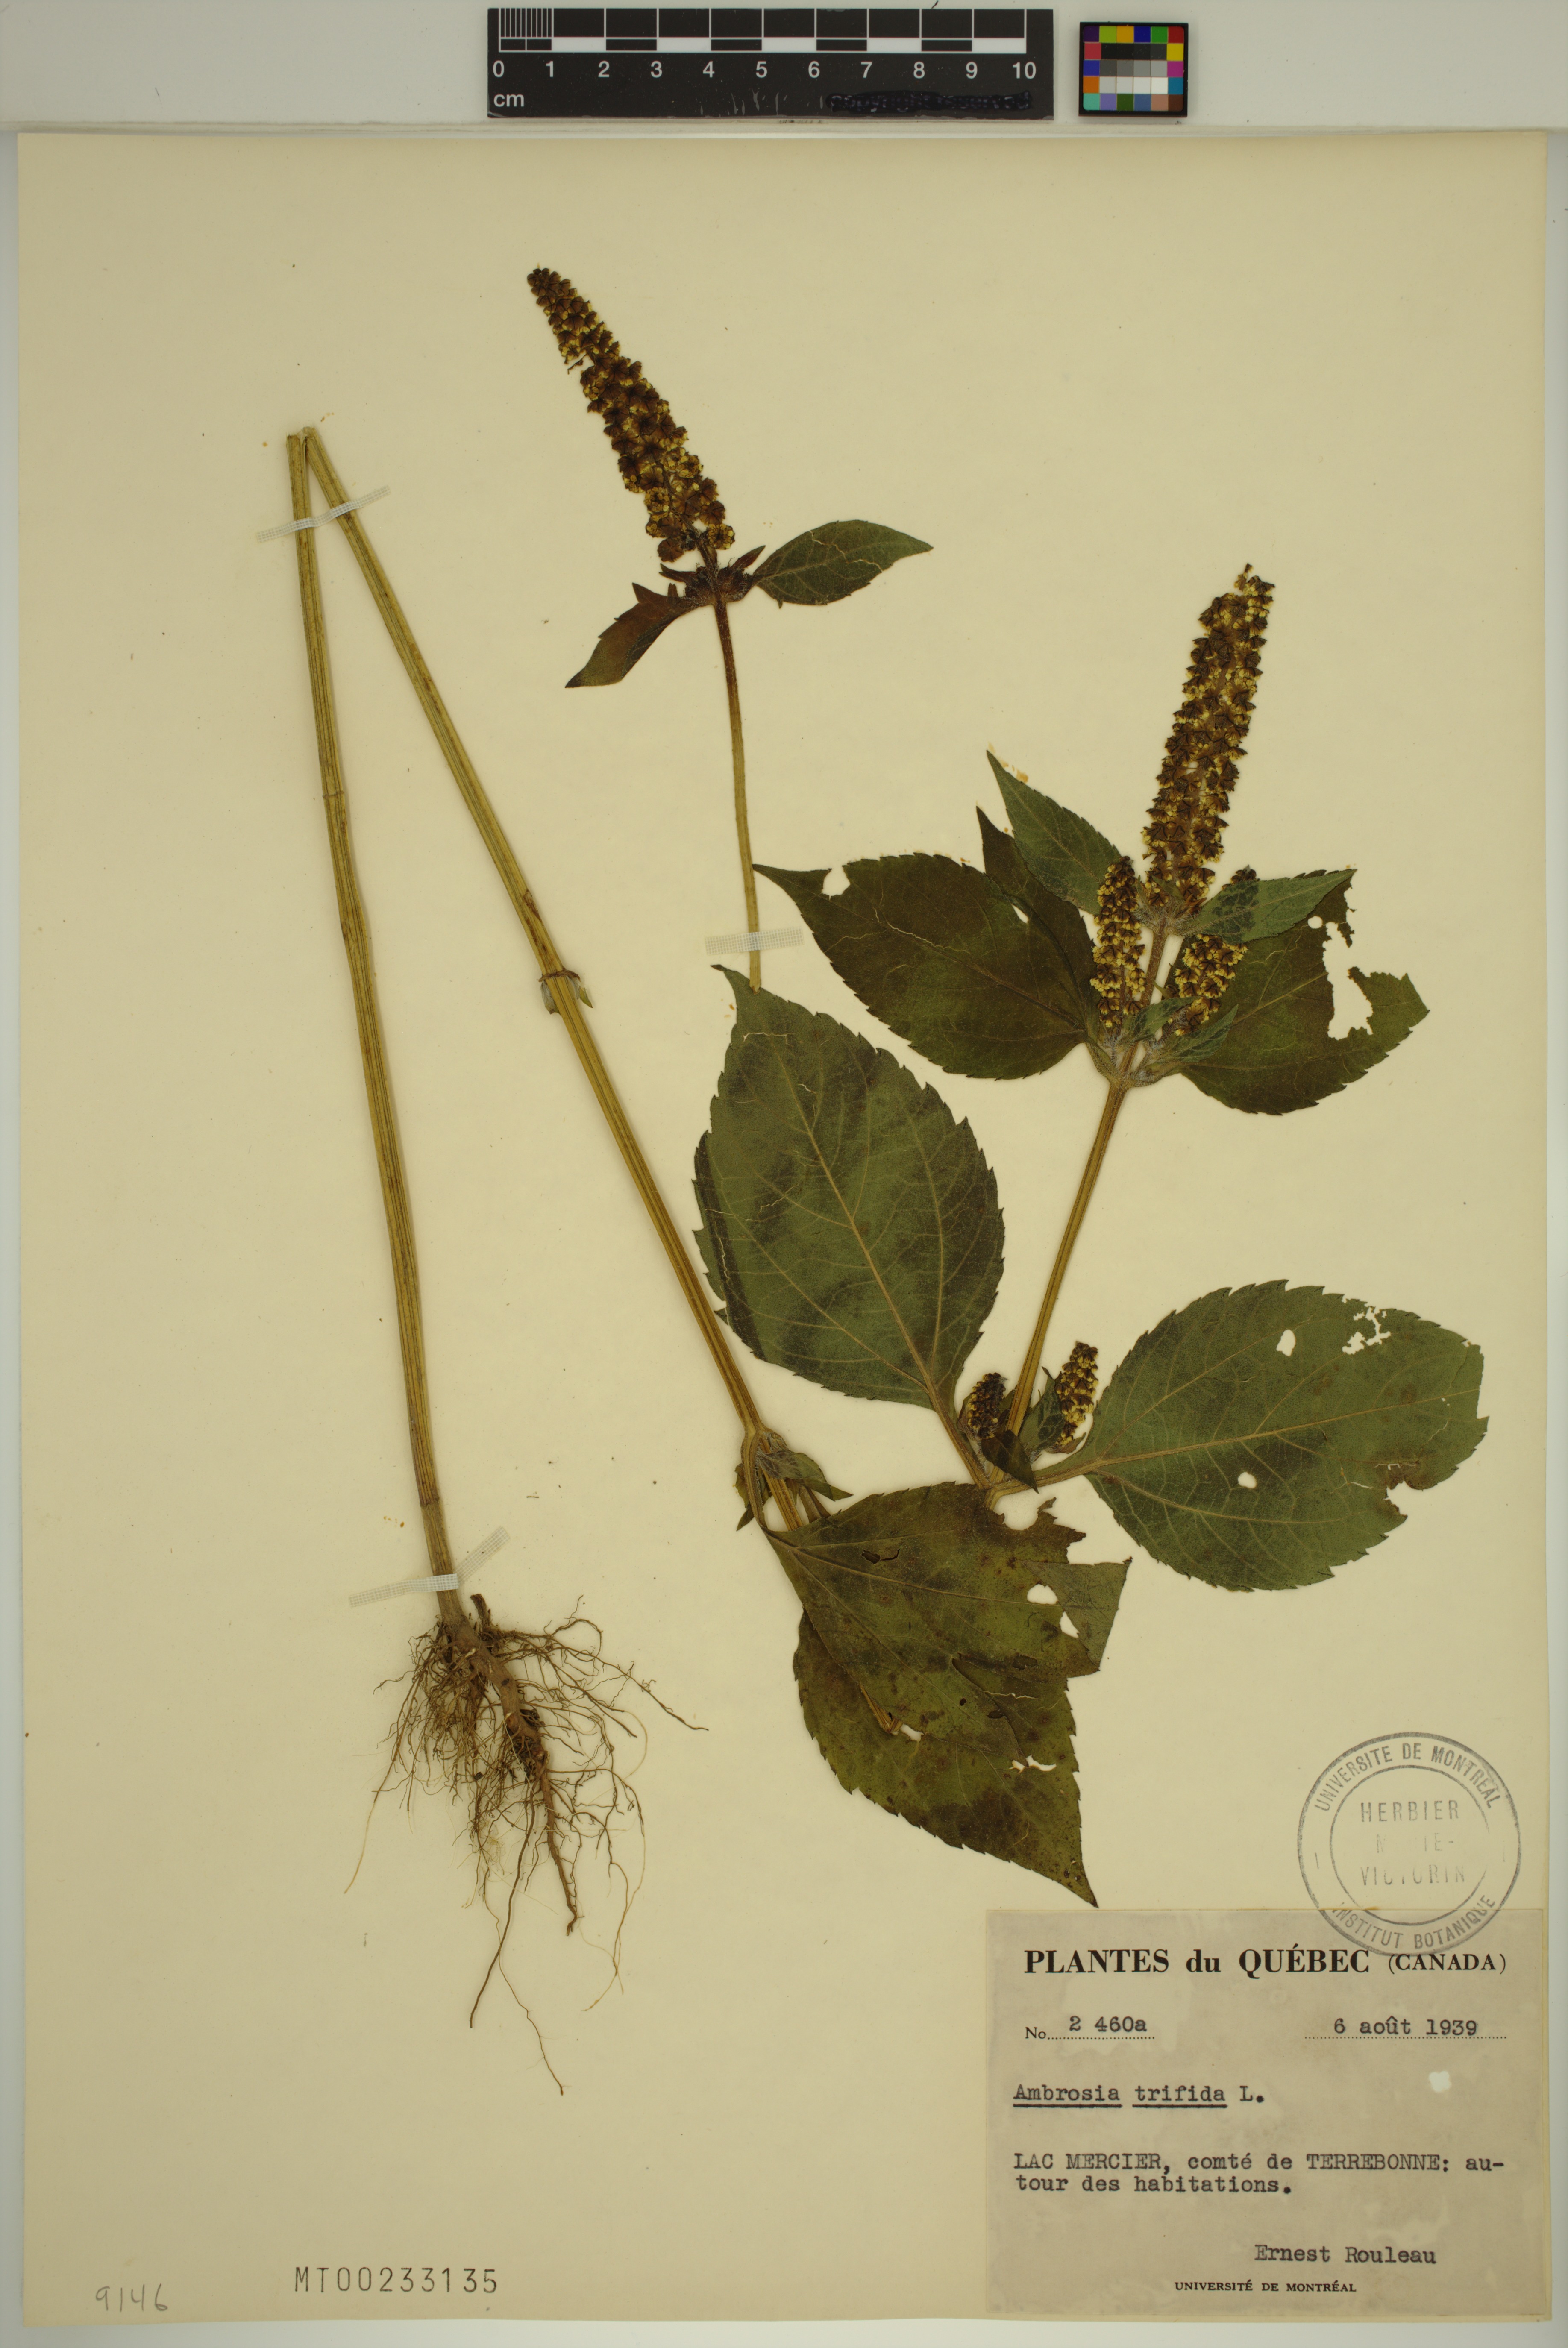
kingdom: Plantae
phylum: Tracheophyta
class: Magnoliopsida
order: Asterales
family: Asteraceae
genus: Ambrosia
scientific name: Ambrosia trifida
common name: Giant ragweed
